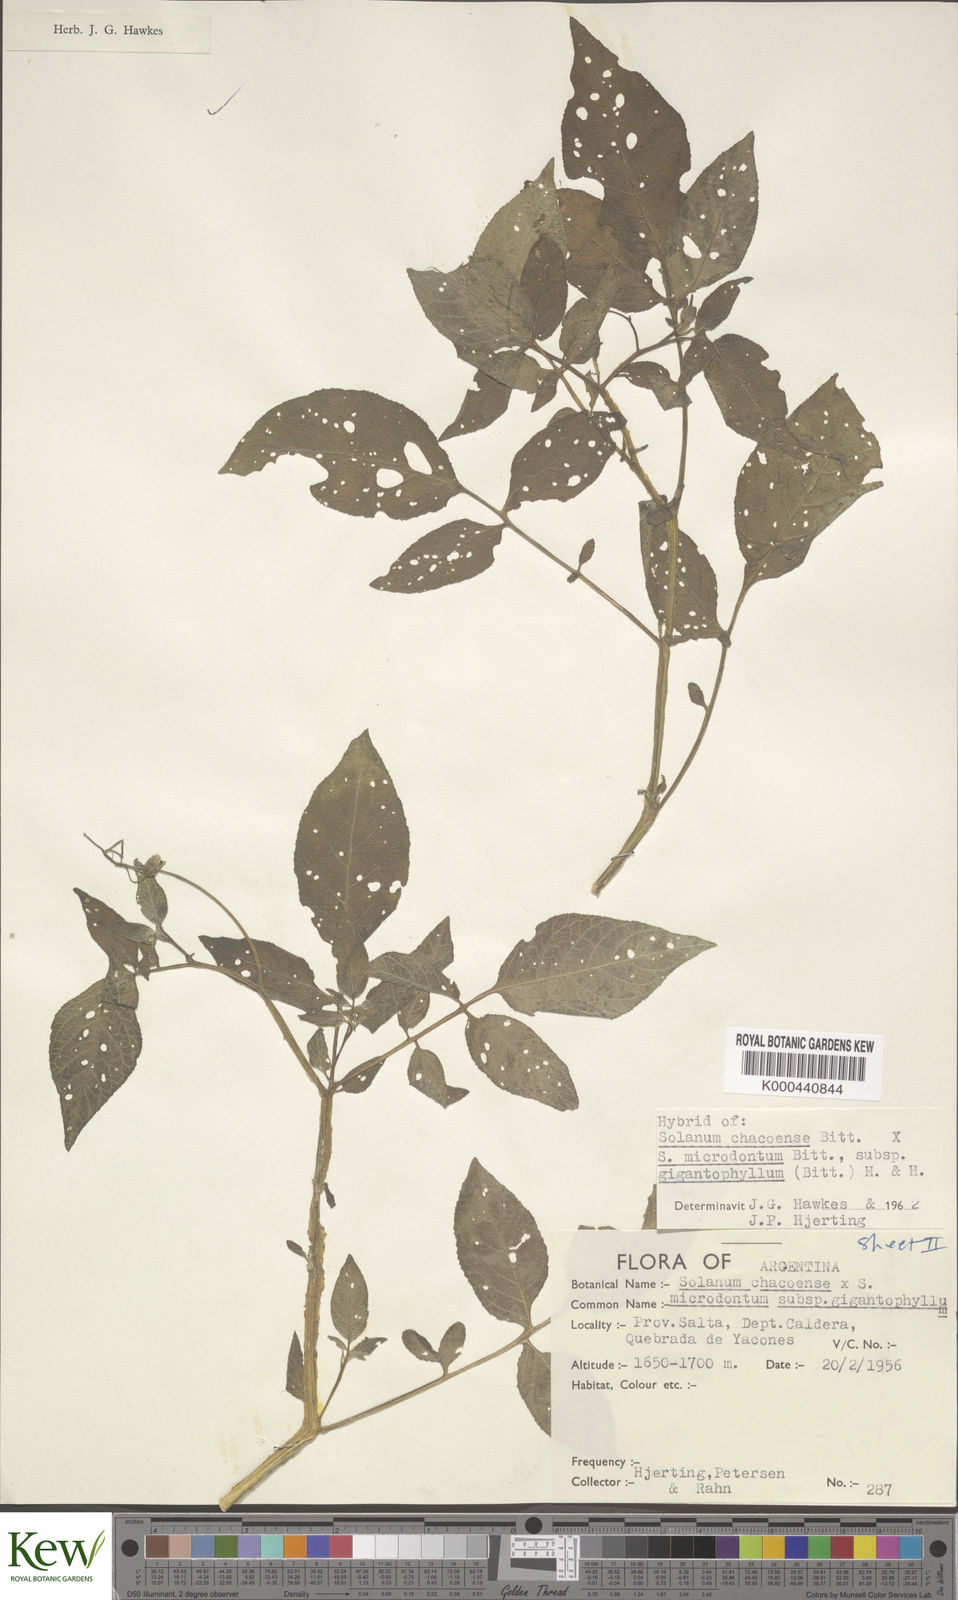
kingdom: Plantae
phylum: Tracheophyta
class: Magnoliopsida
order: Solanales
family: Solanaceae
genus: Solanum
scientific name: Solanum microdontum
